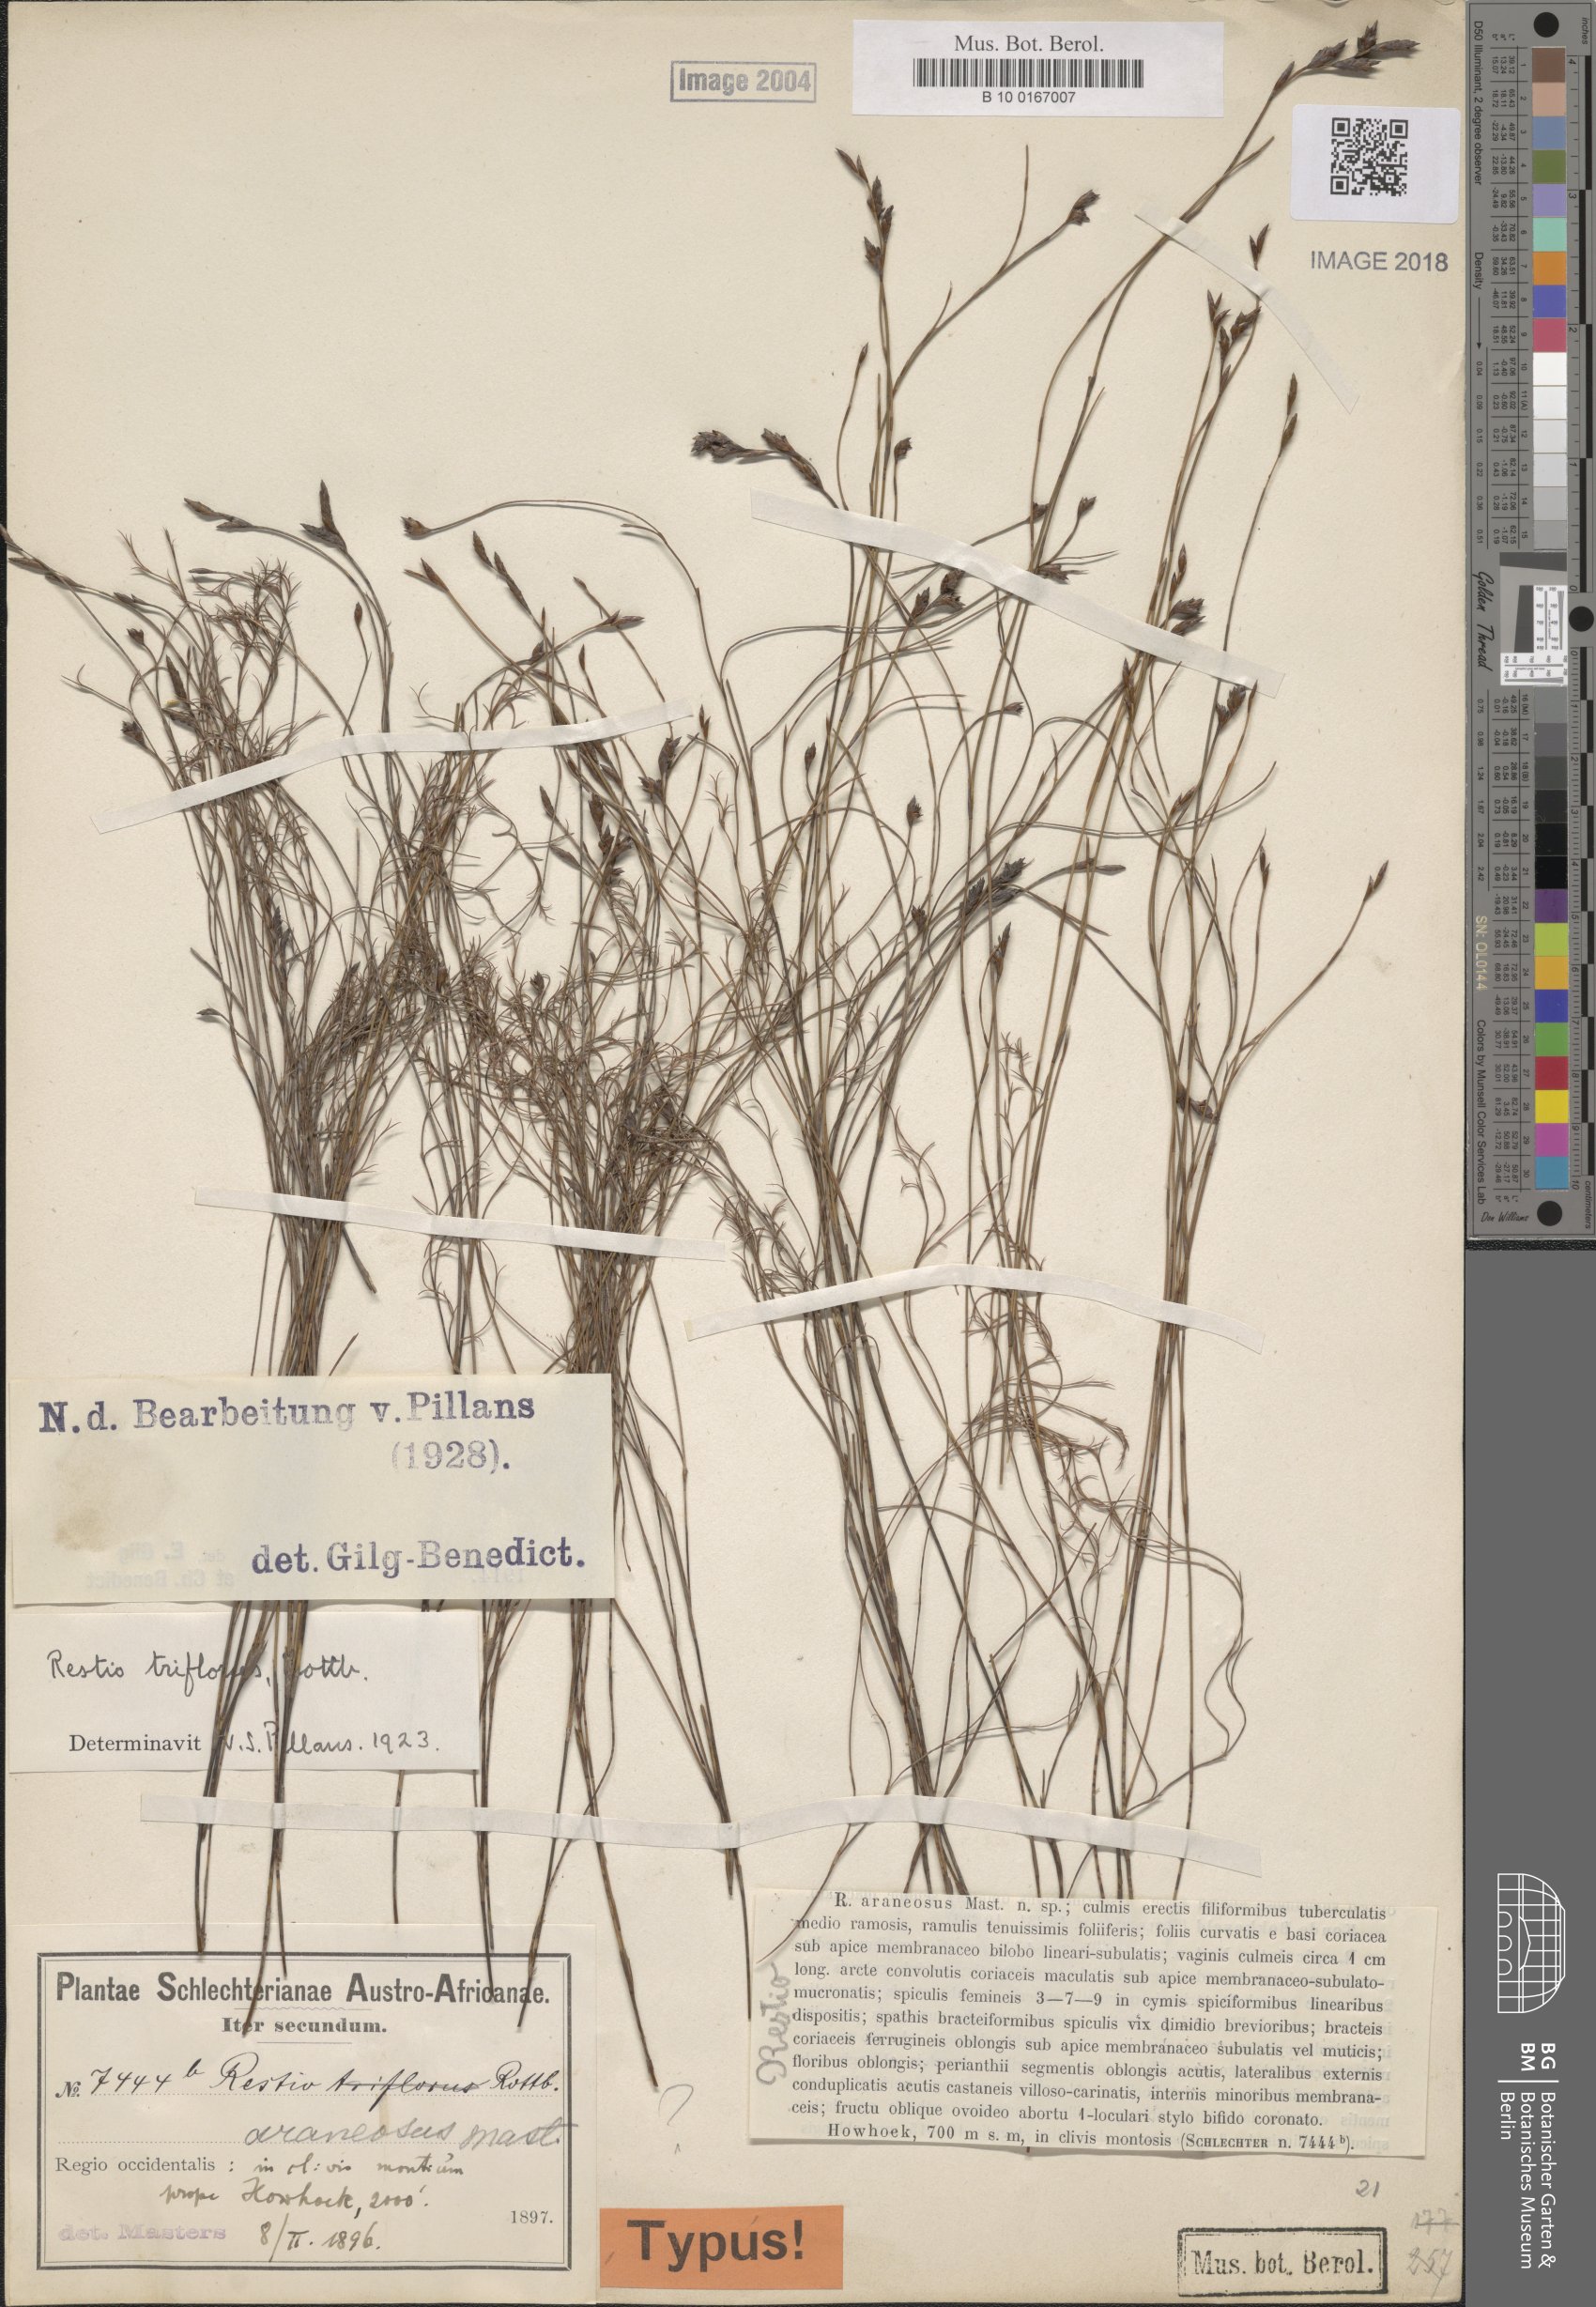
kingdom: Plantae
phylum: Tracheophyta
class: Liliopsida
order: Poales
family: Restionaceae
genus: Restio
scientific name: Restio triflorus
